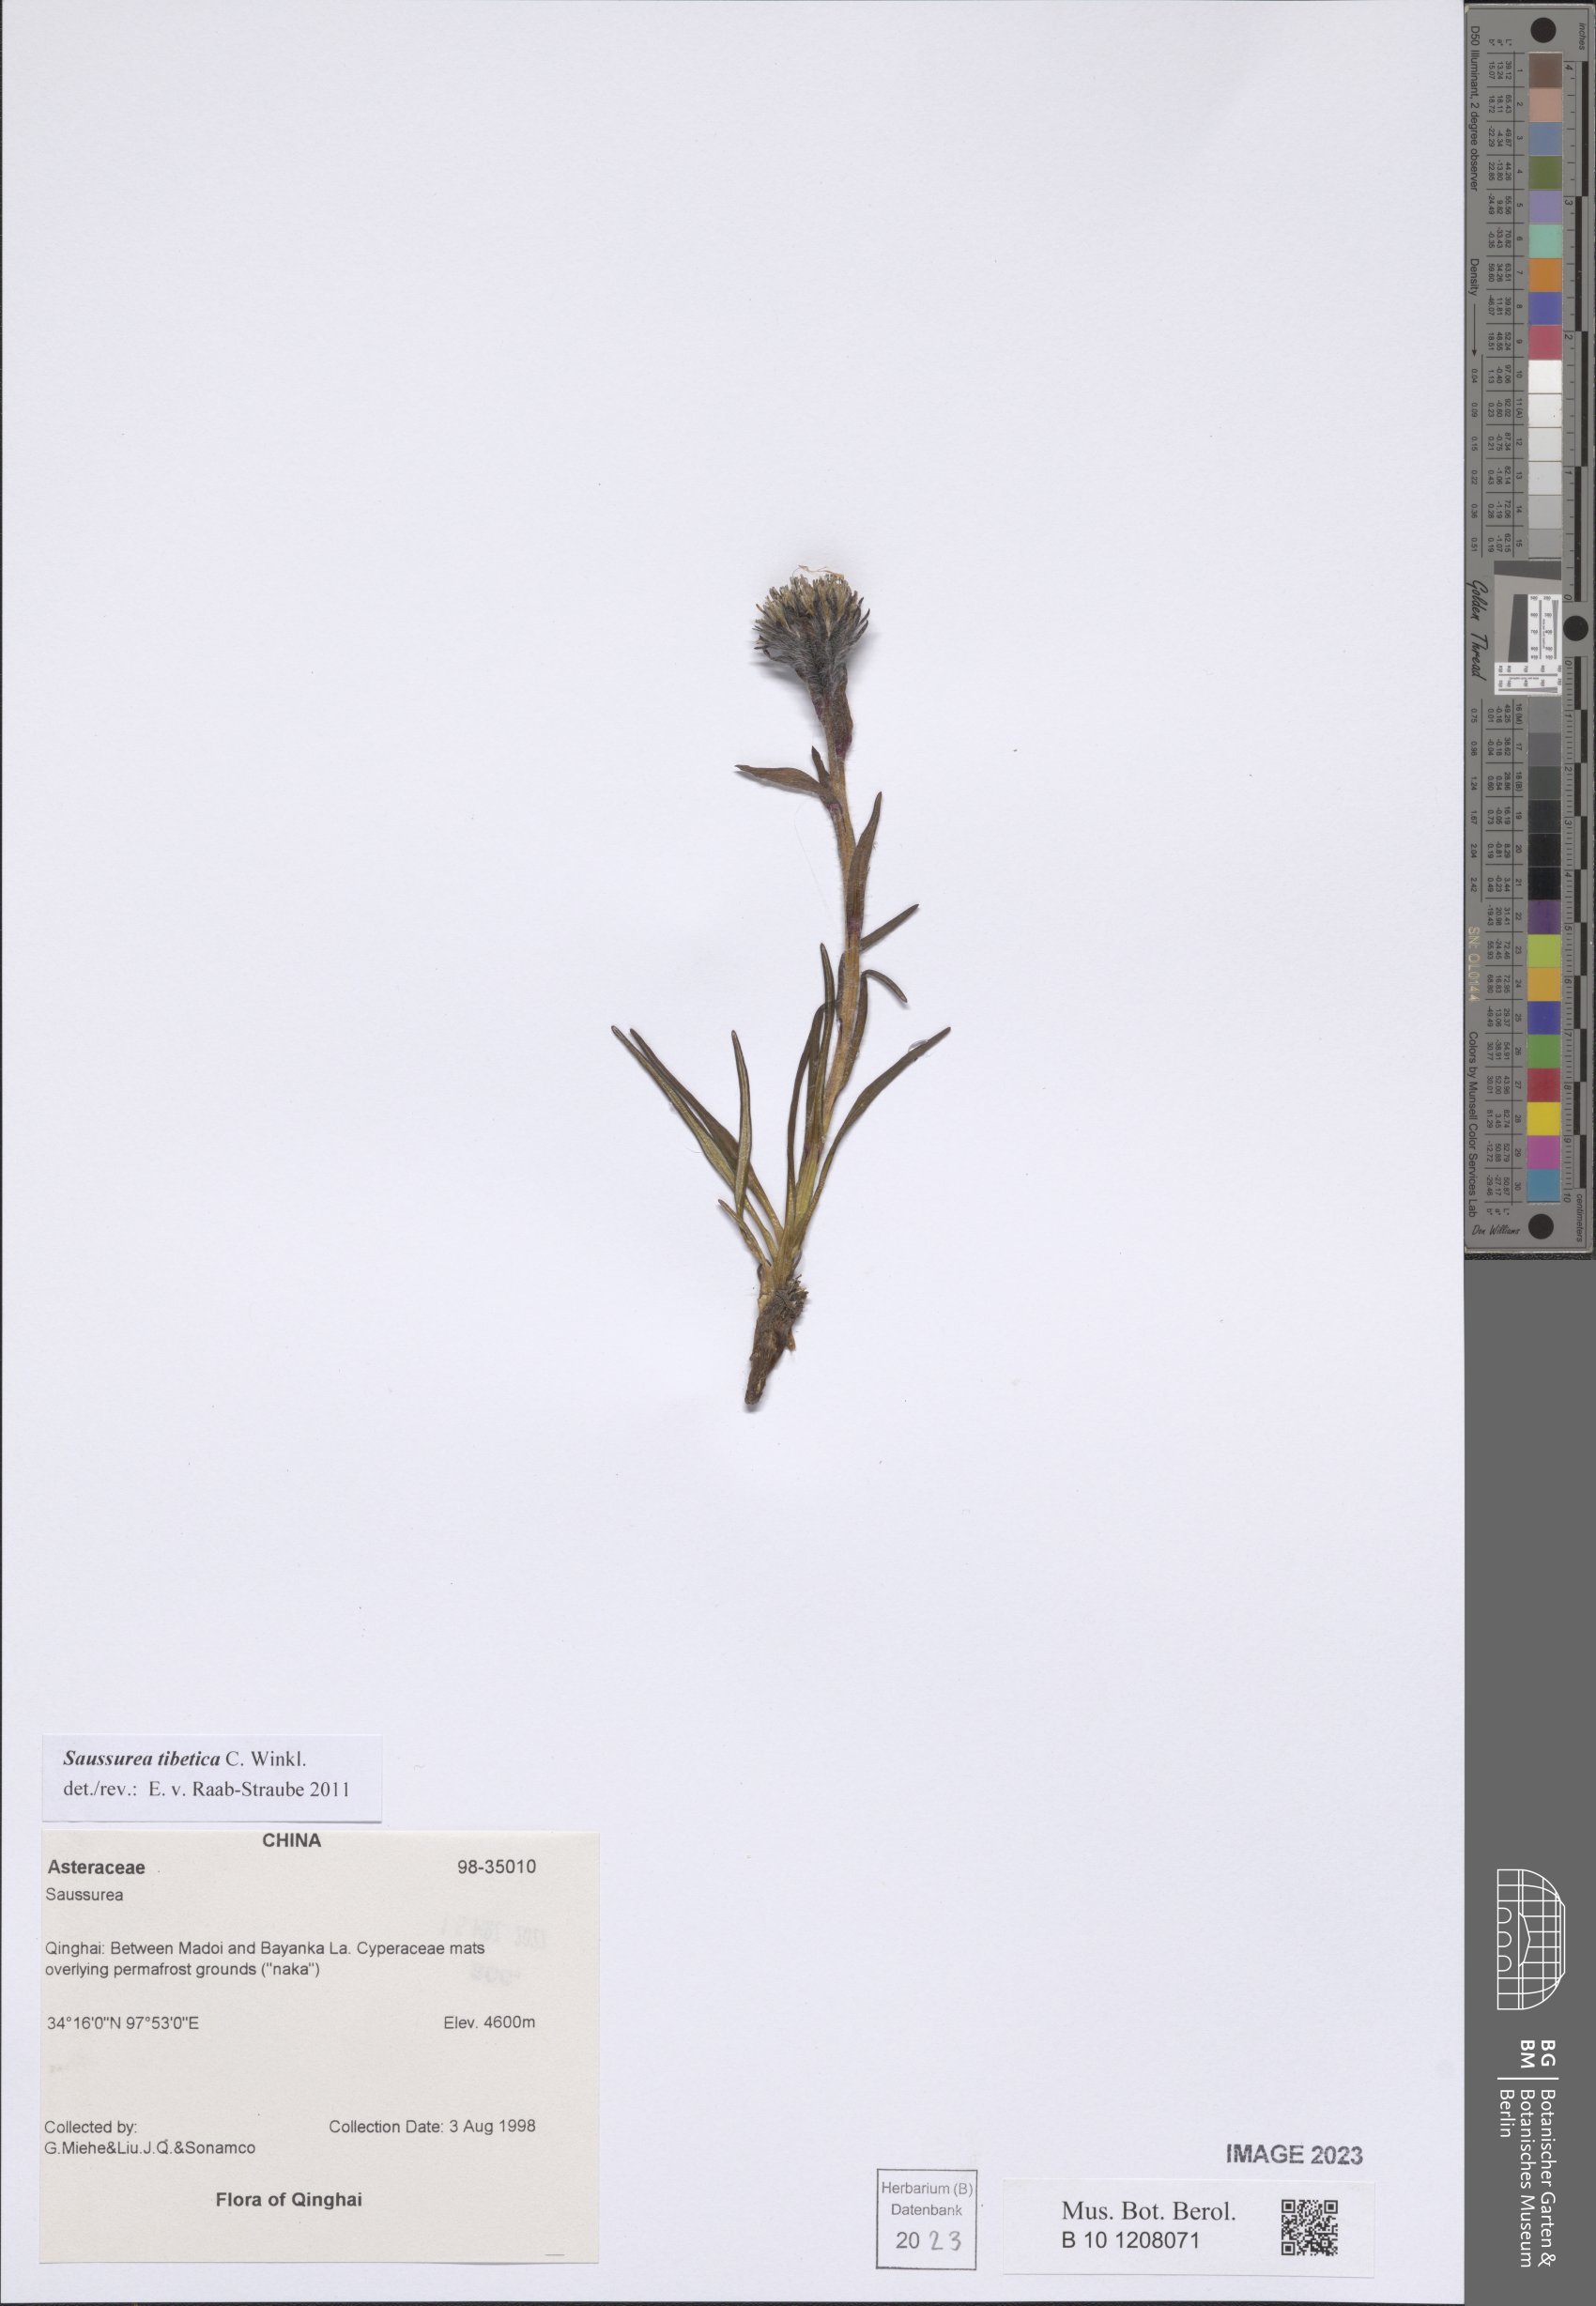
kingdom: Plantae
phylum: Tracheophyta
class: Magnoliopsida
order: Asterales
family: Asteraceae
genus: Saussurea
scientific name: Saussurea tibetica
